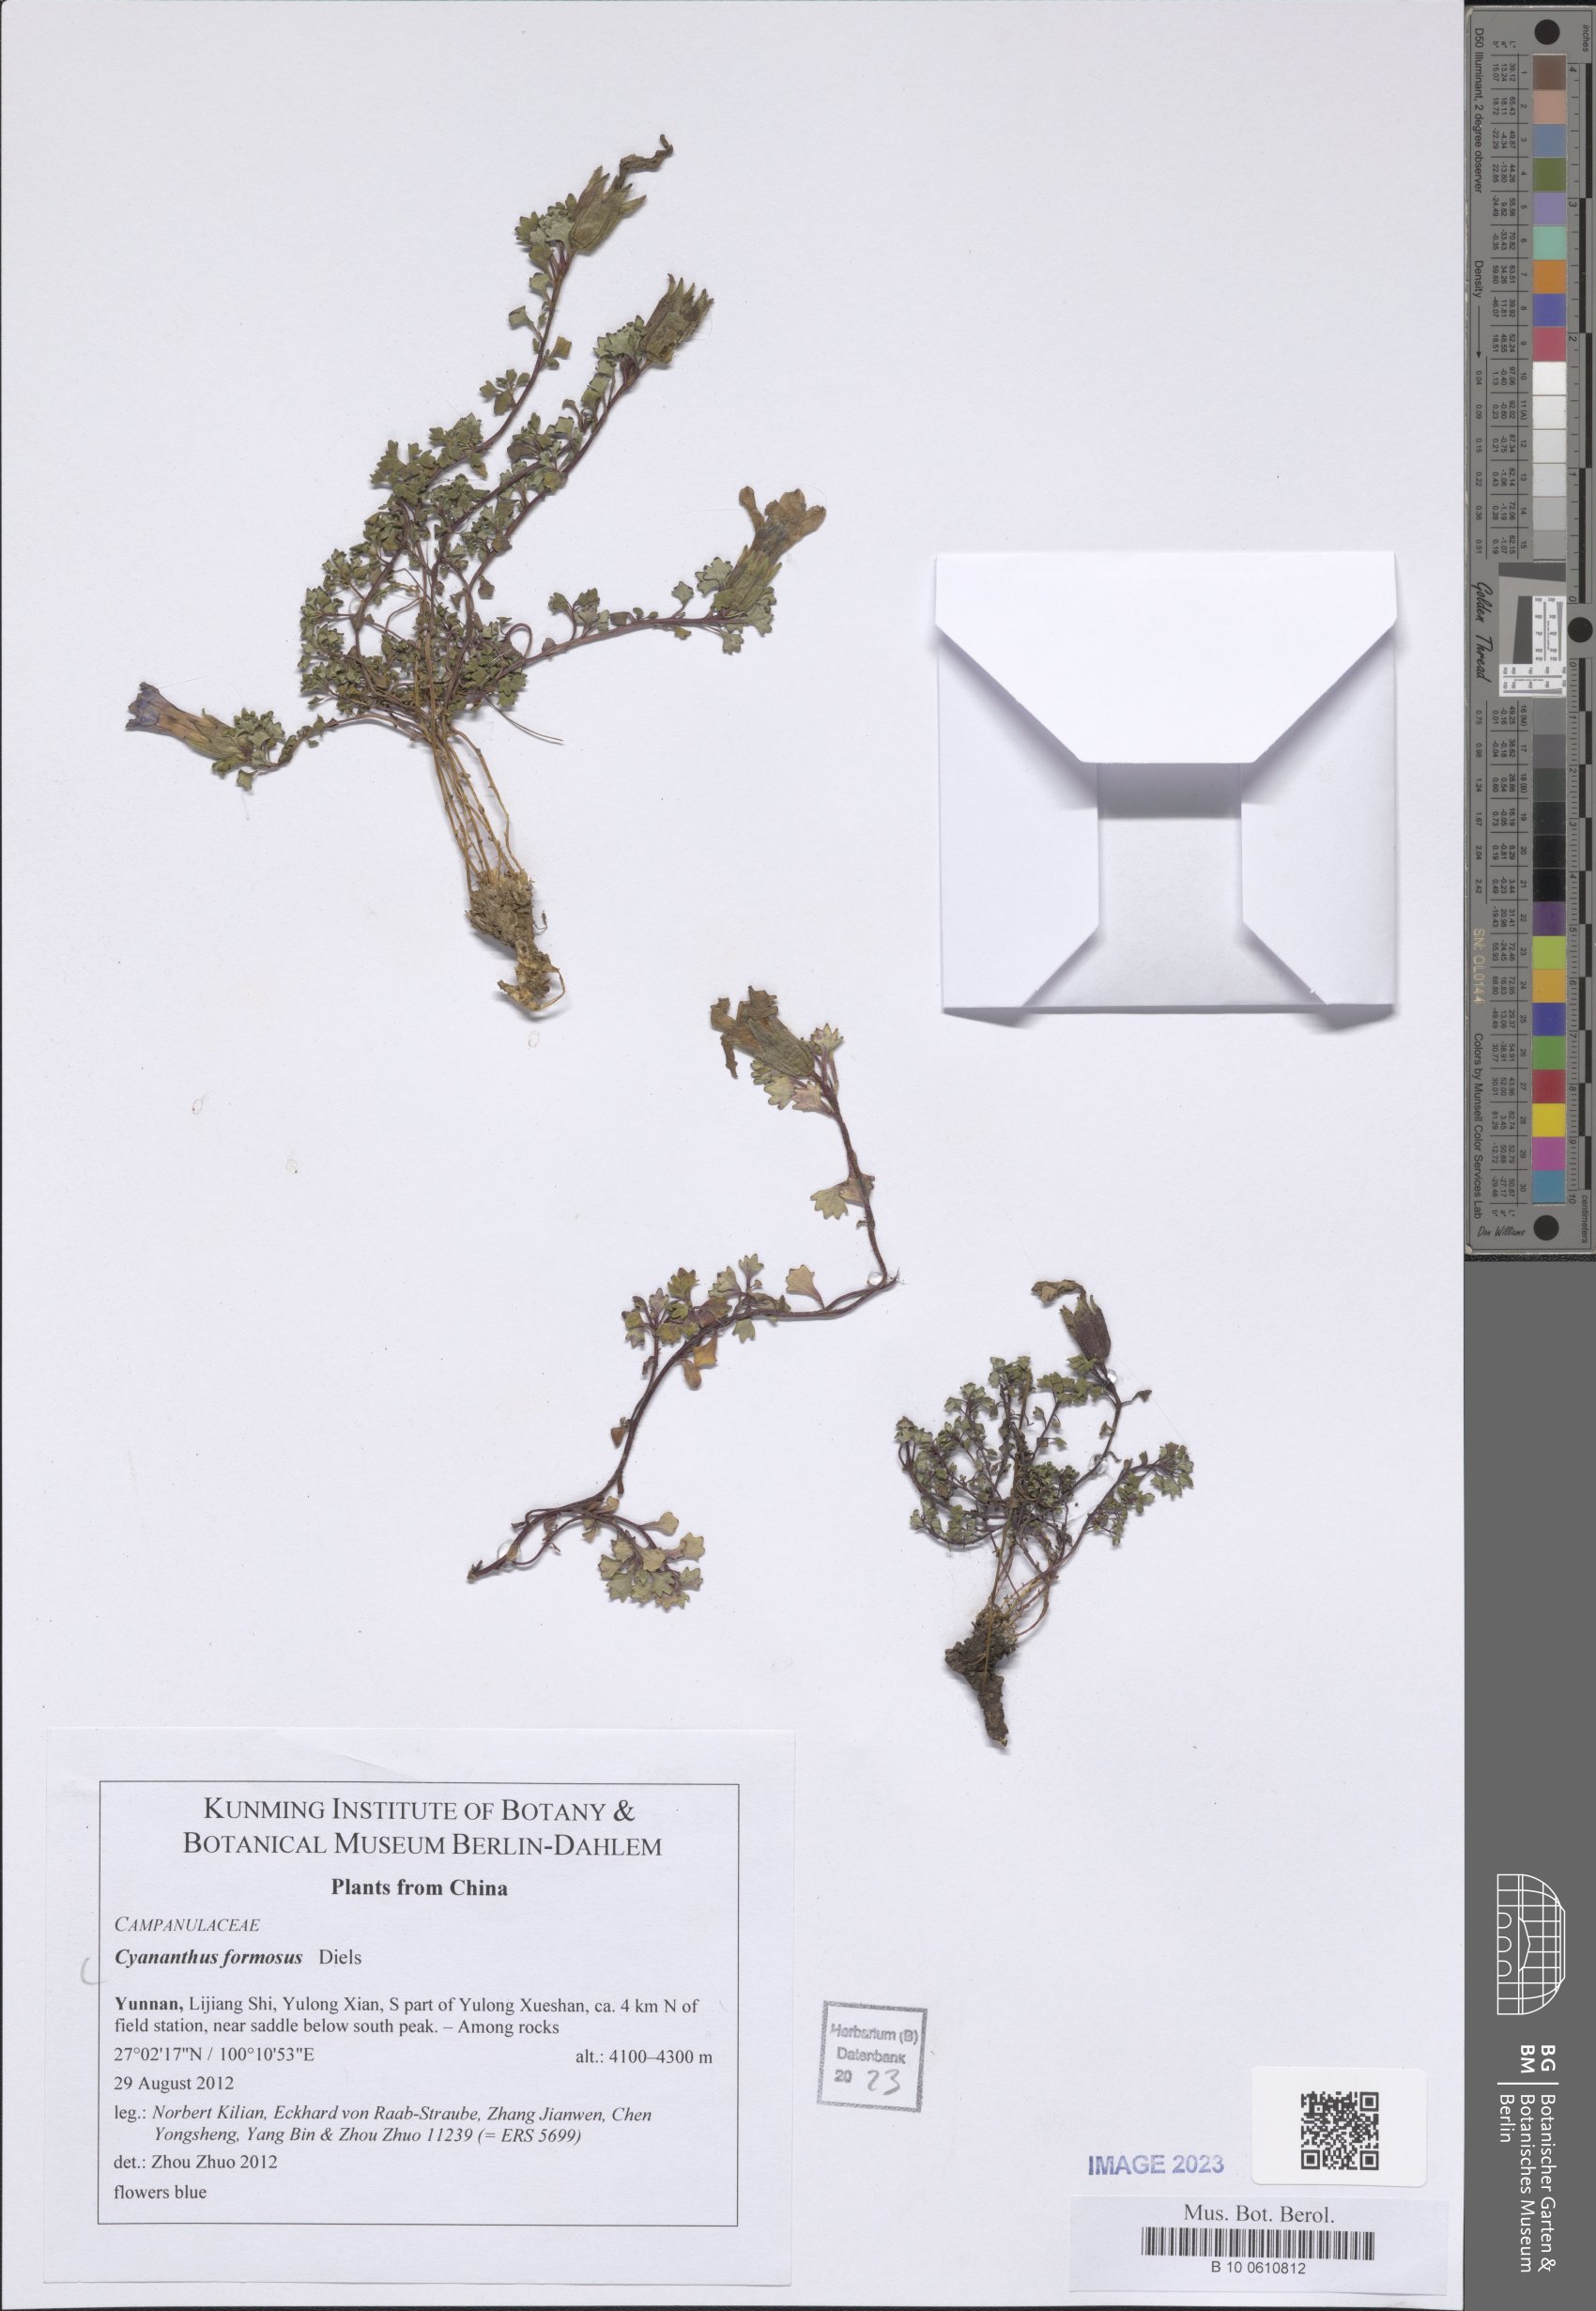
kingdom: Plantae
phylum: Tracheophyta
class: Magnoliopsida
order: Asterales
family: Campanulaceae
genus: Cyananthus
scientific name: Cyananthus formosus
